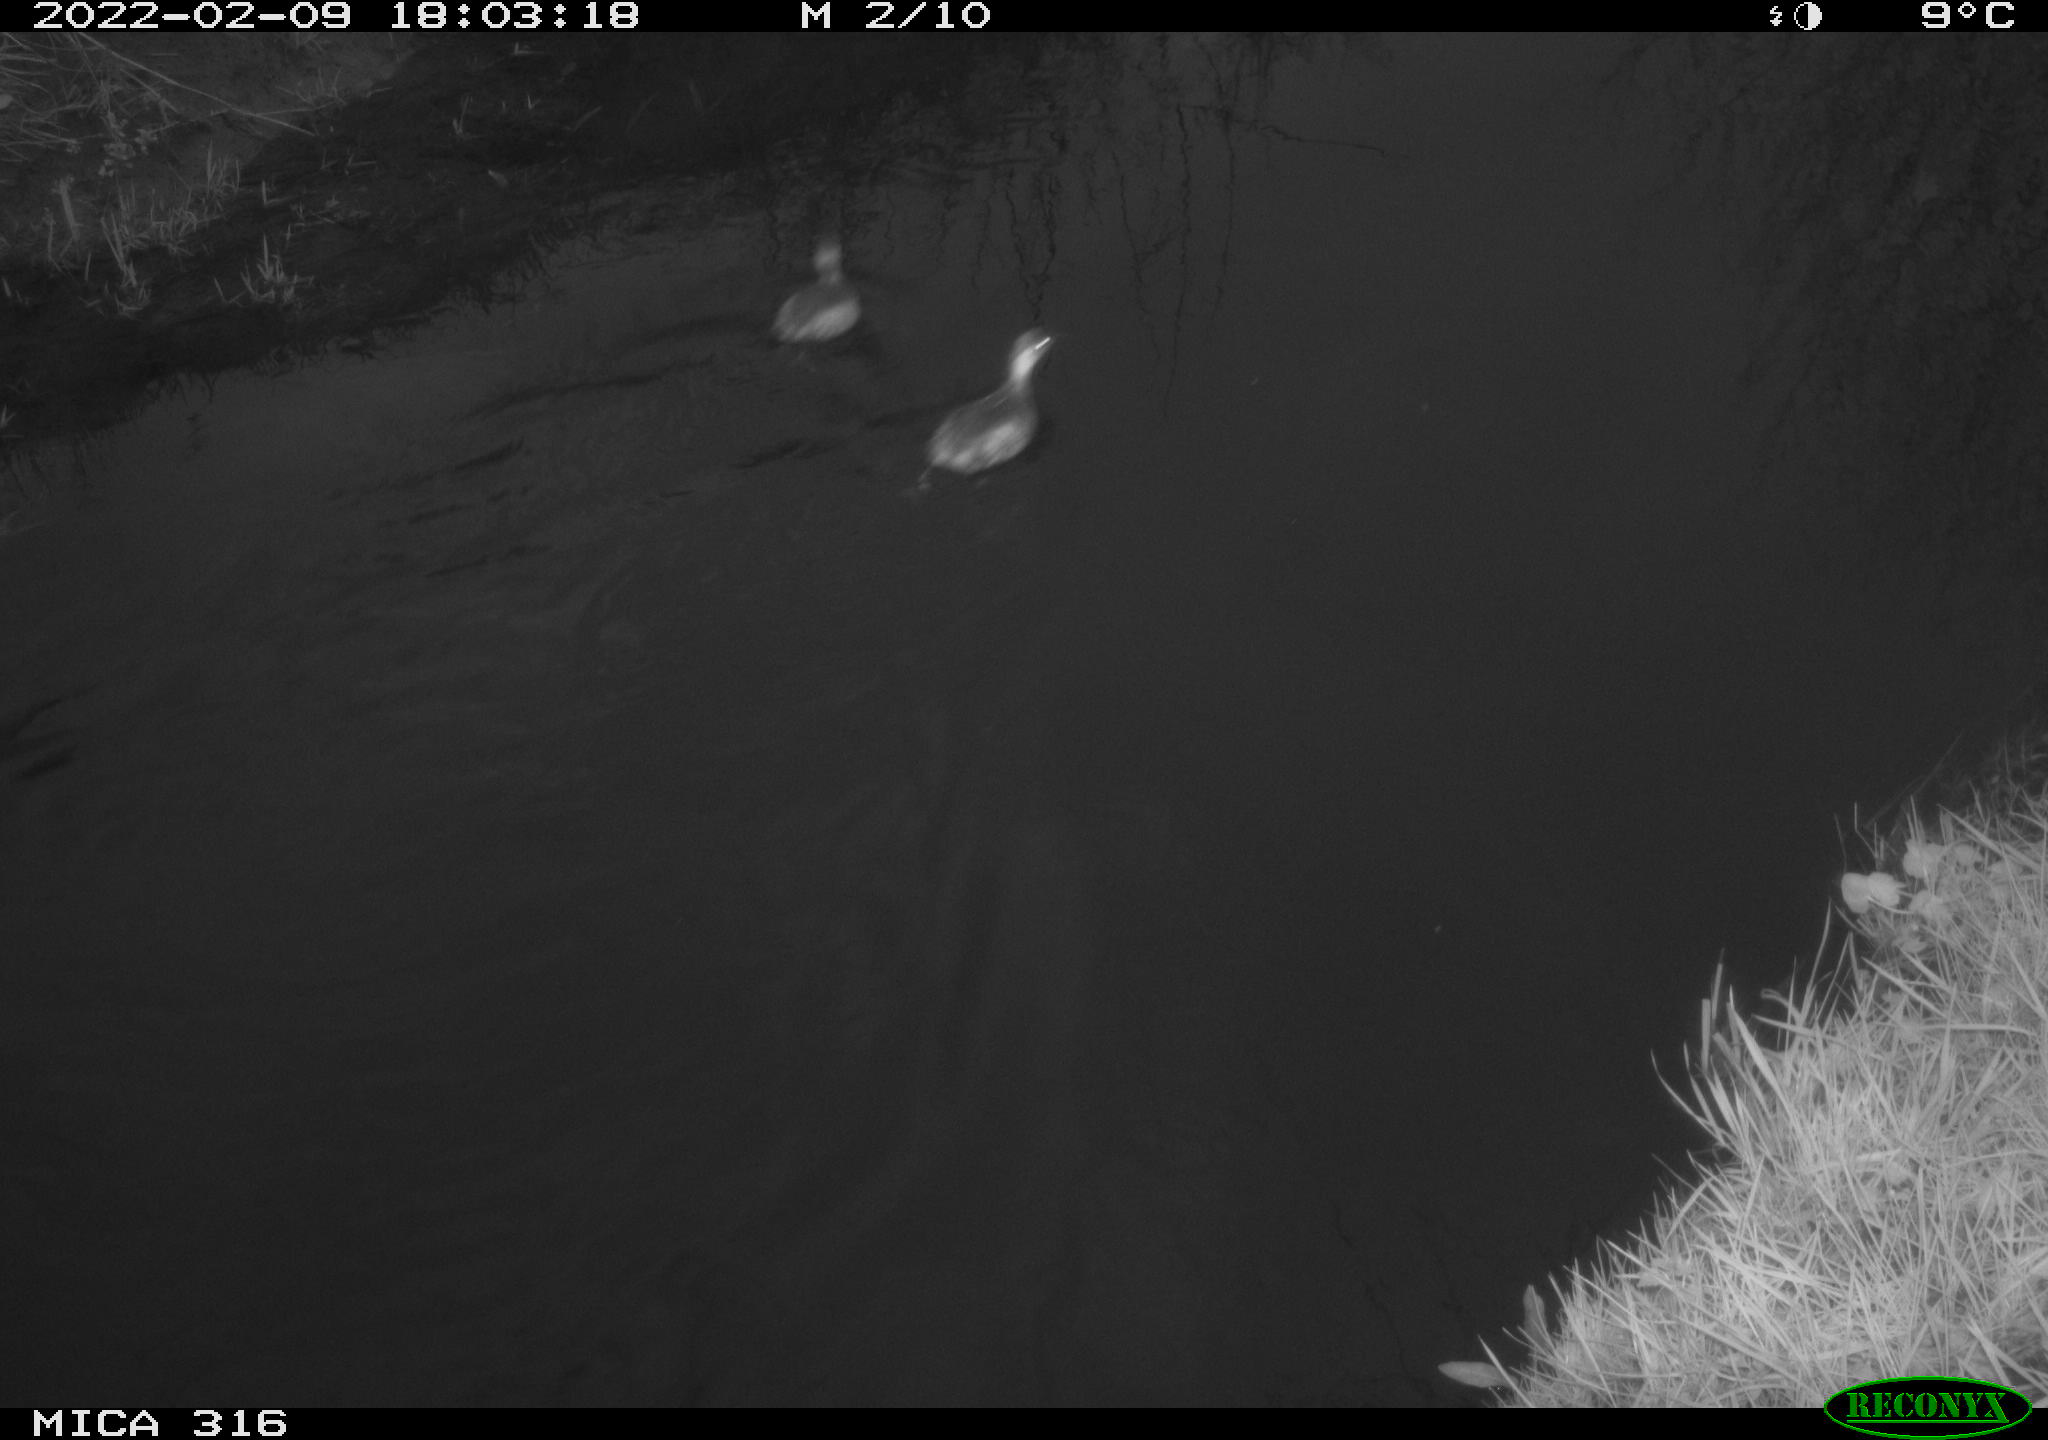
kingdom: Animalia
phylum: Chordata
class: Aves
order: Gruiformes
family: Rallidae
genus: Gallinula
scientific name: Gallinula chloropus
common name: Common moorhen
